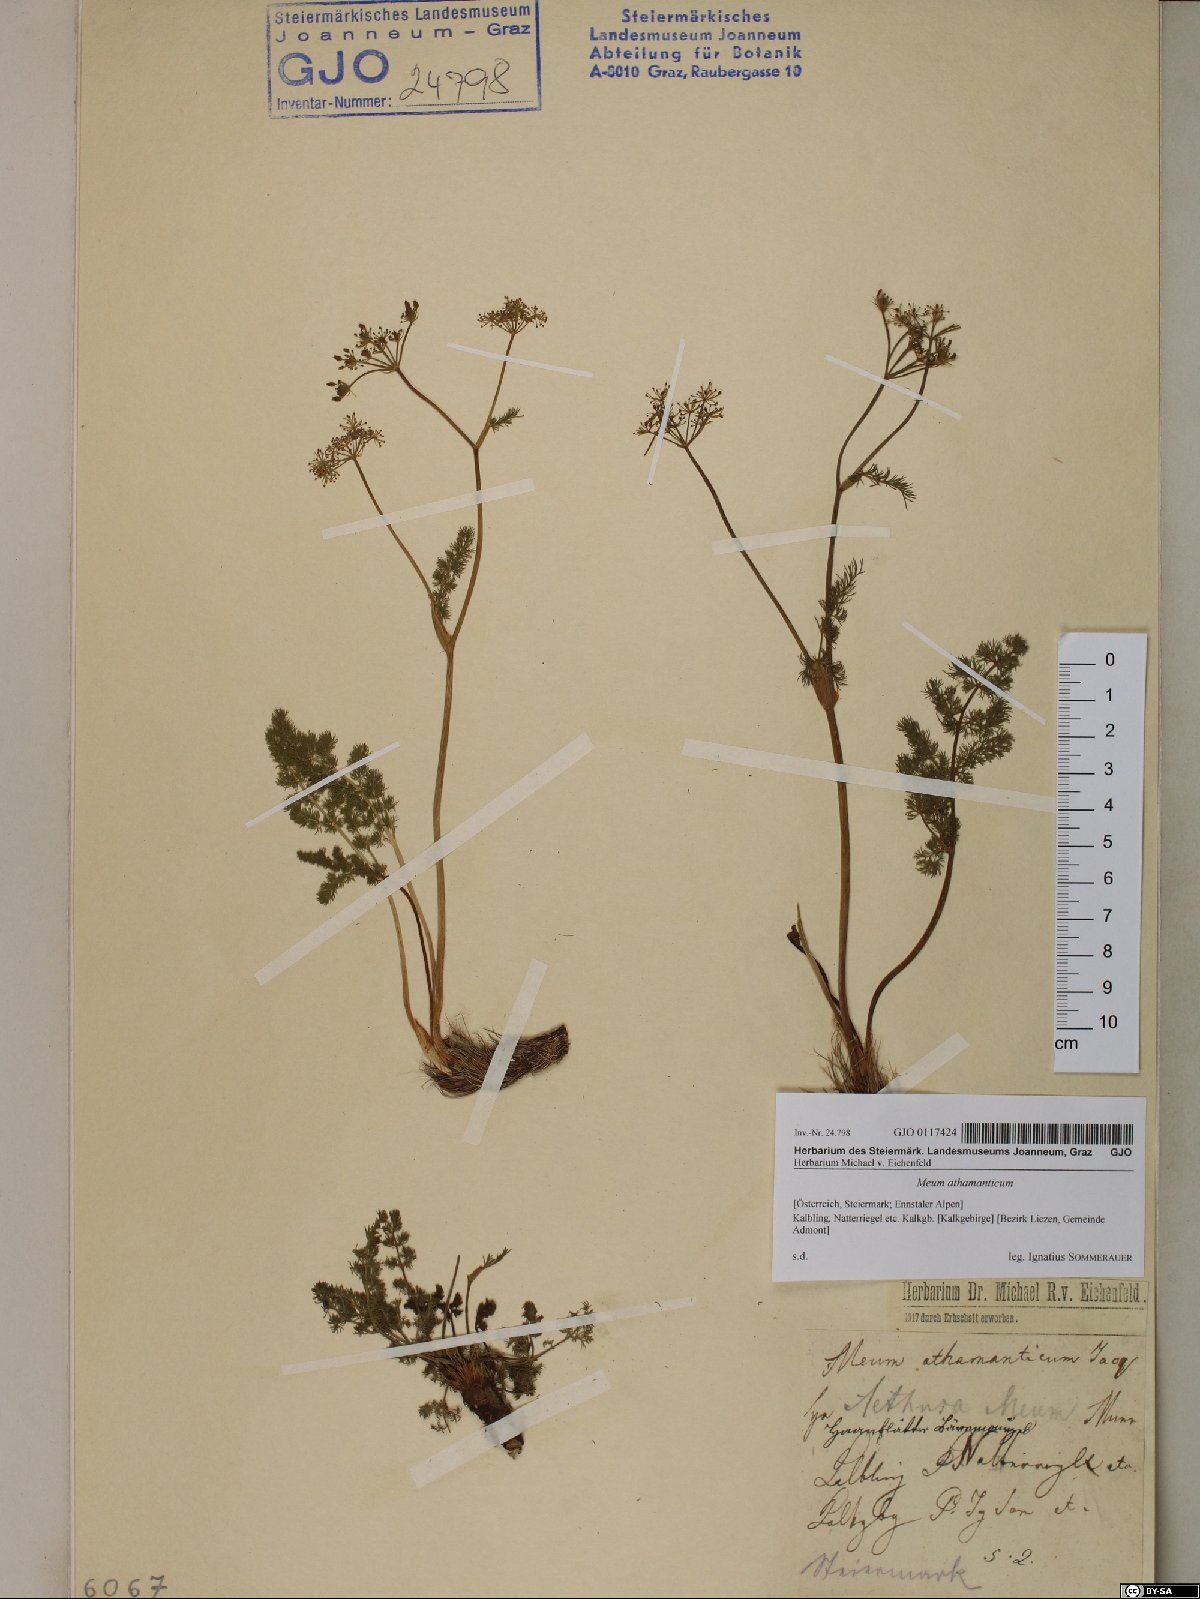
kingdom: Plantae
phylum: Tracheophyta
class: Magnoliopsida
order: Apiales
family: Apiaceae
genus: Meum
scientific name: Meum athamanticum
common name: Spignel
